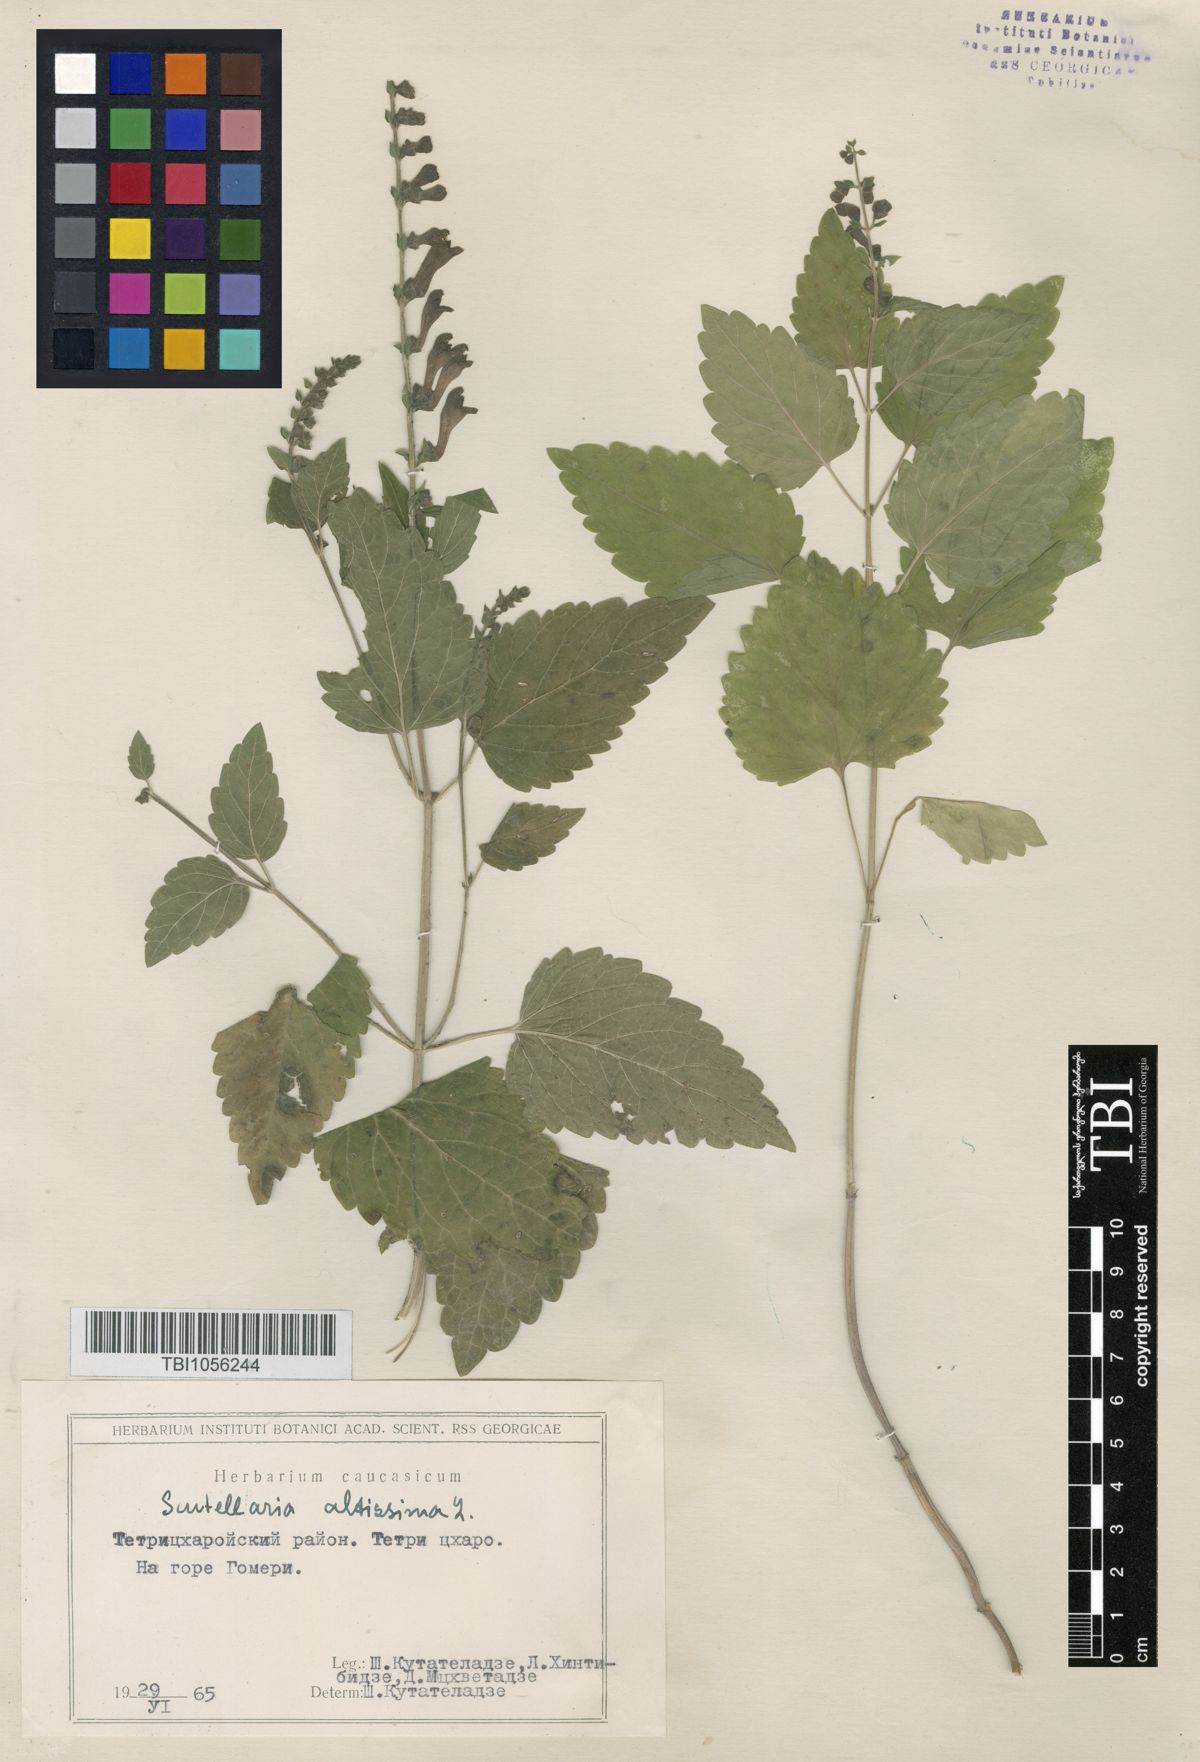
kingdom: Plantae
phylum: Tracheophyta
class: Magnoliopsida
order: Lamiales
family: Lamiaceae
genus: Scutellaria
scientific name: Scutellaria altissima
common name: Somerset skullcap
